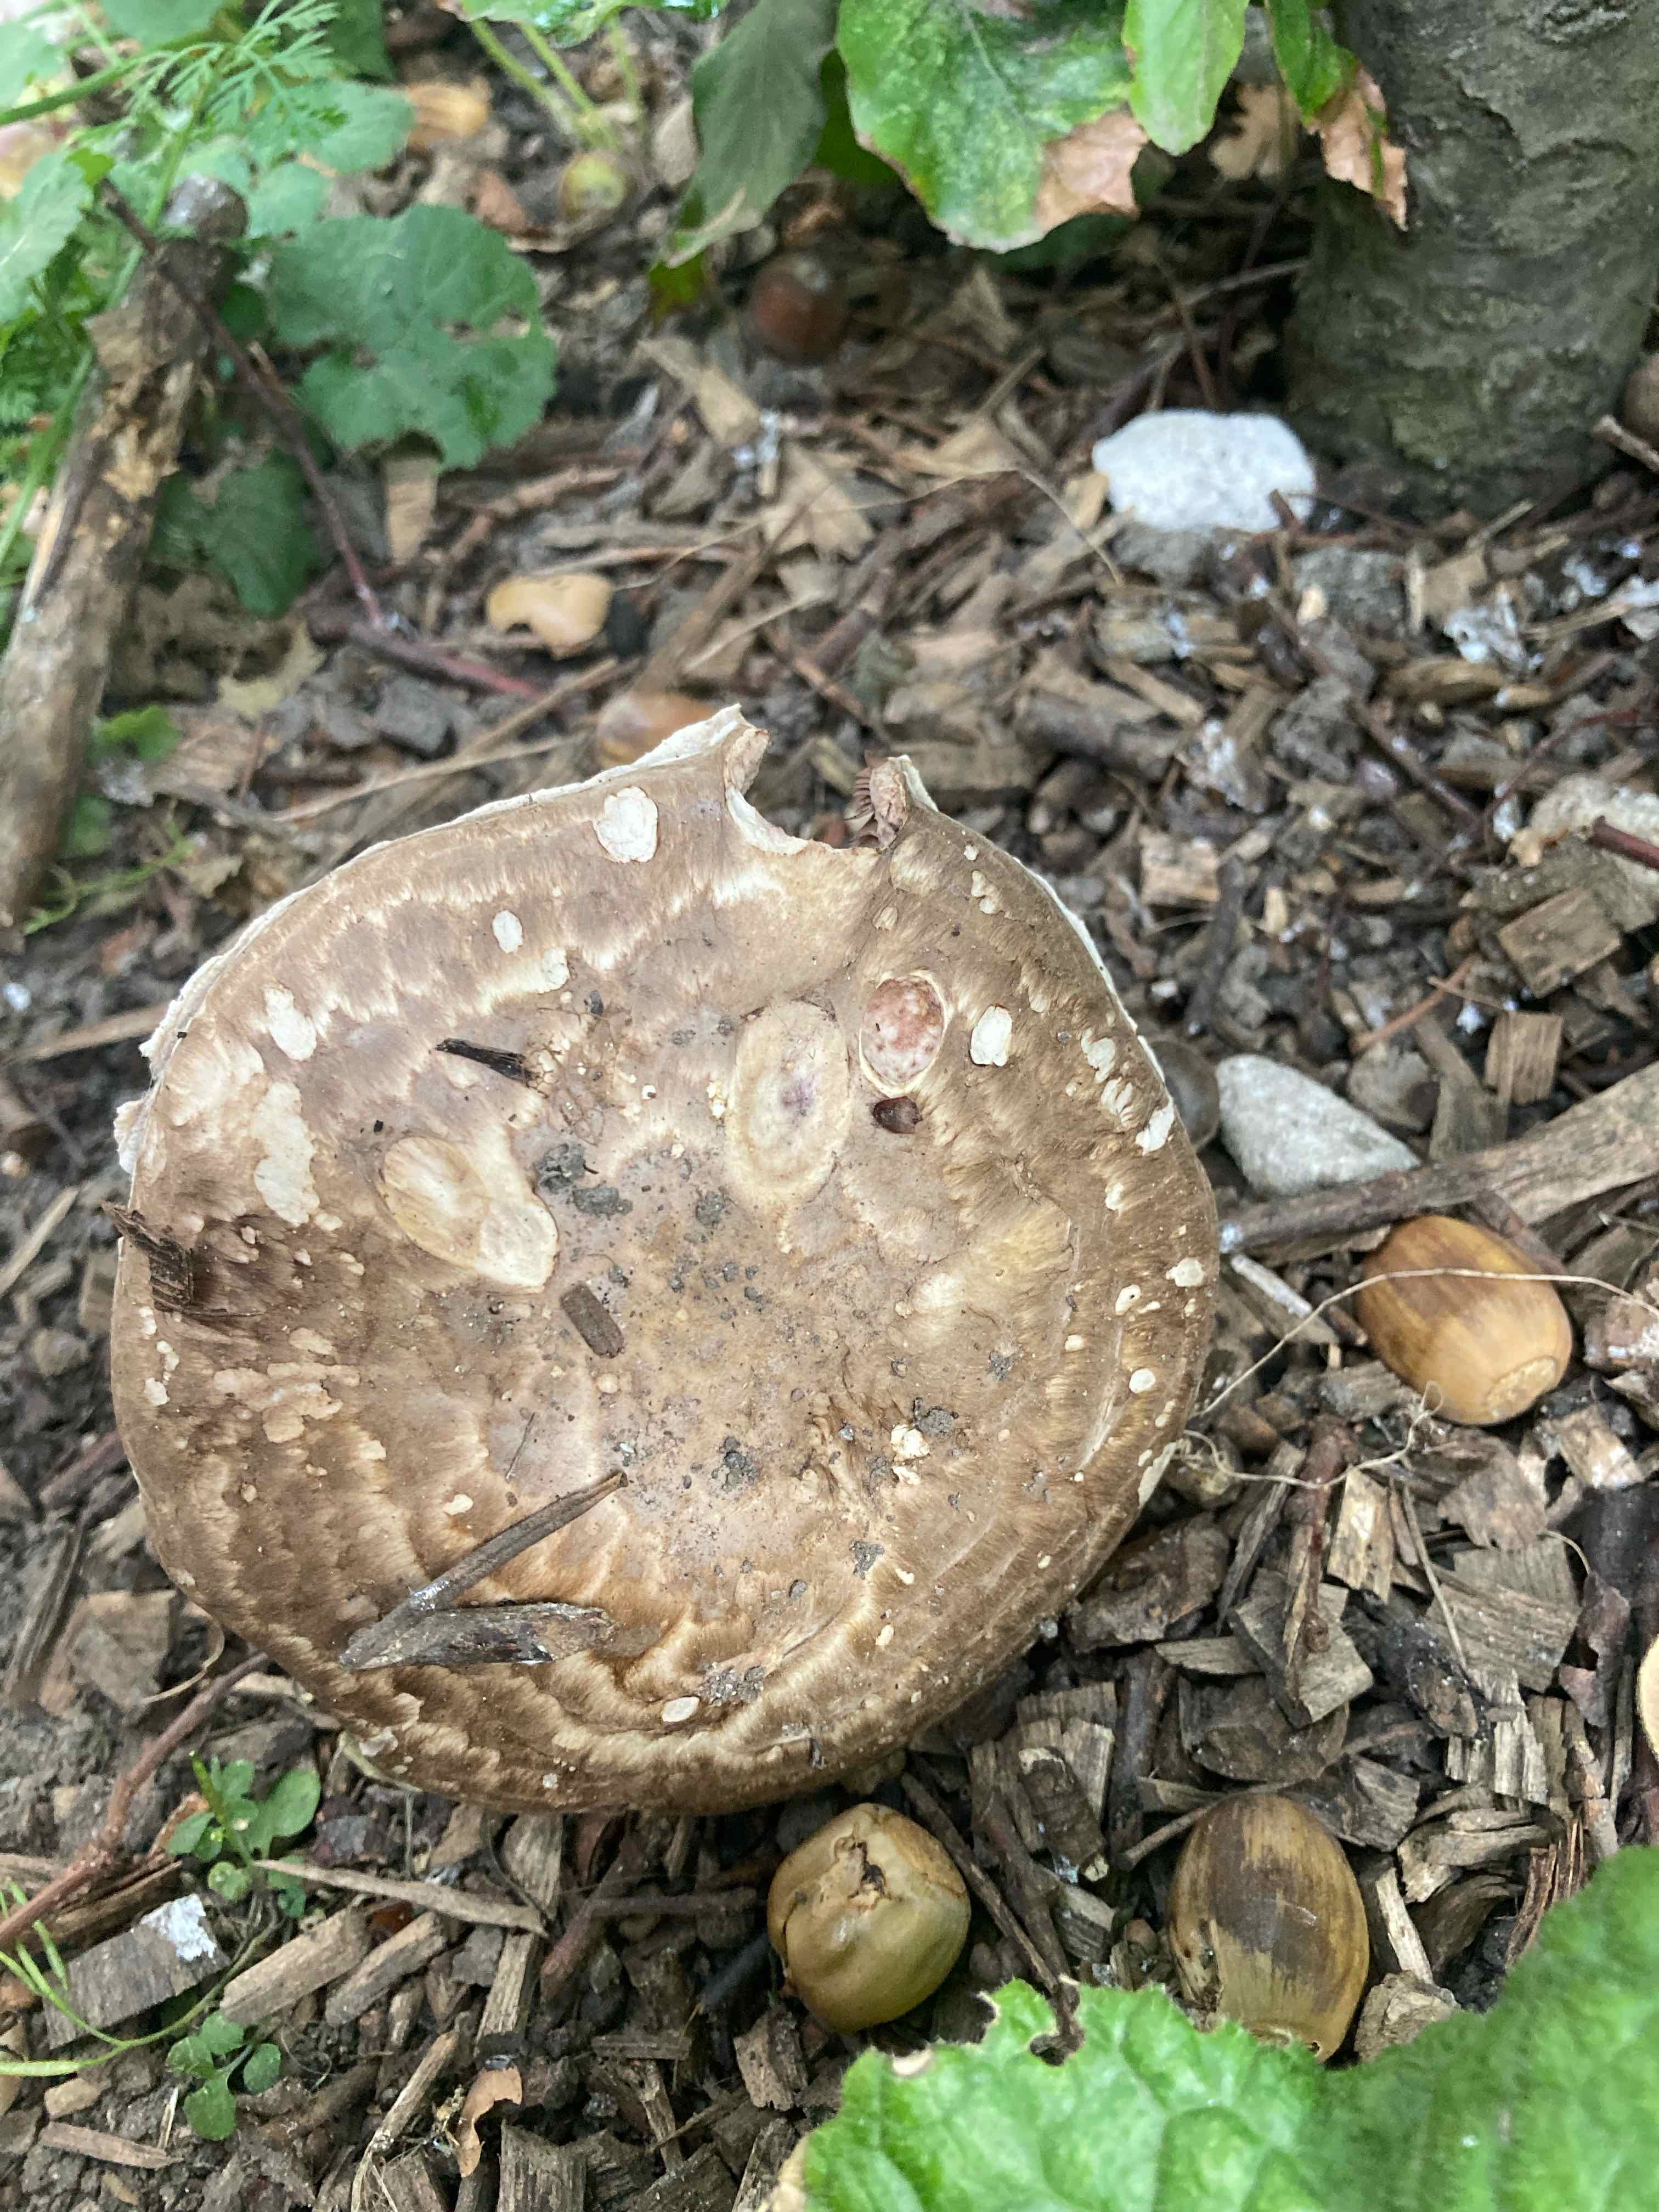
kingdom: Fungi
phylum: Basidiomycota
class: Agaricomycetes
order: Agaricales
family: Agaricaceae
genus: Agaricus
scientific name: Agaricus subperonatus
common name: knippe-champignon
